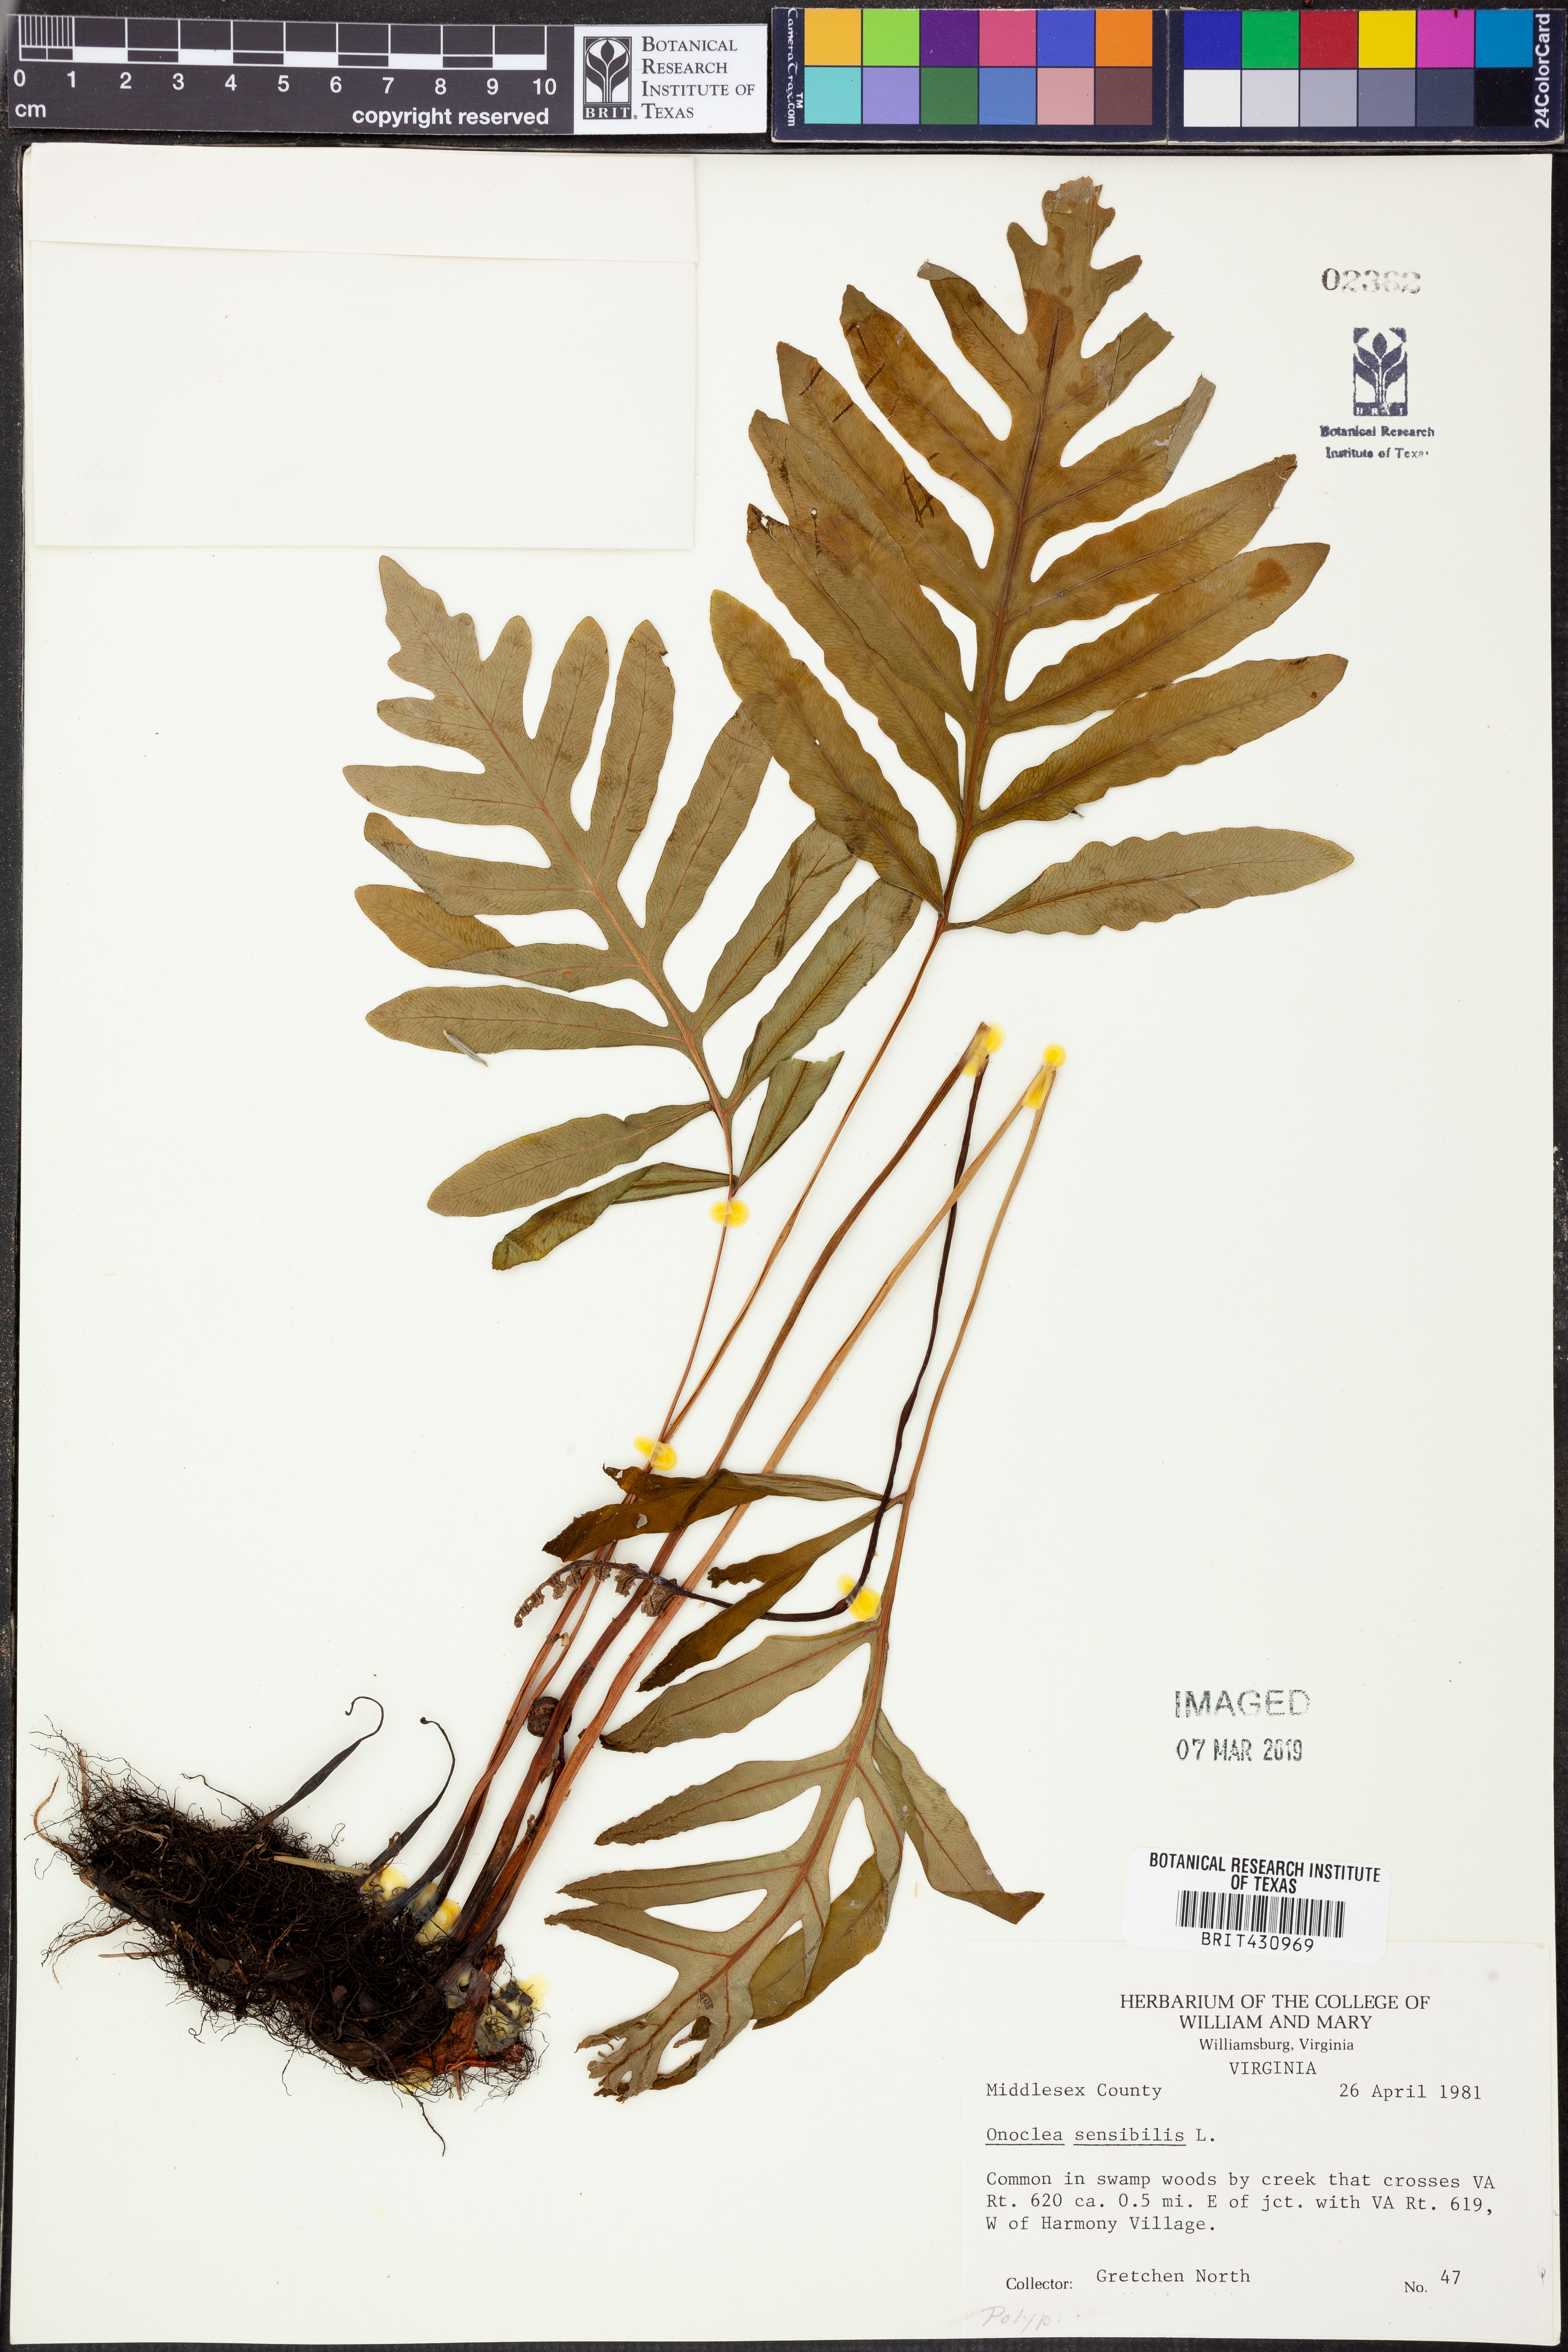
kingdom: Plantae
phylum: Tracheophyta
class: Polypodiopsida
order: Polypodiales
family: Onocleaceae
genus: Onoclea
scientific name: Onoclea sensibilis
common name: Sensitive fern
